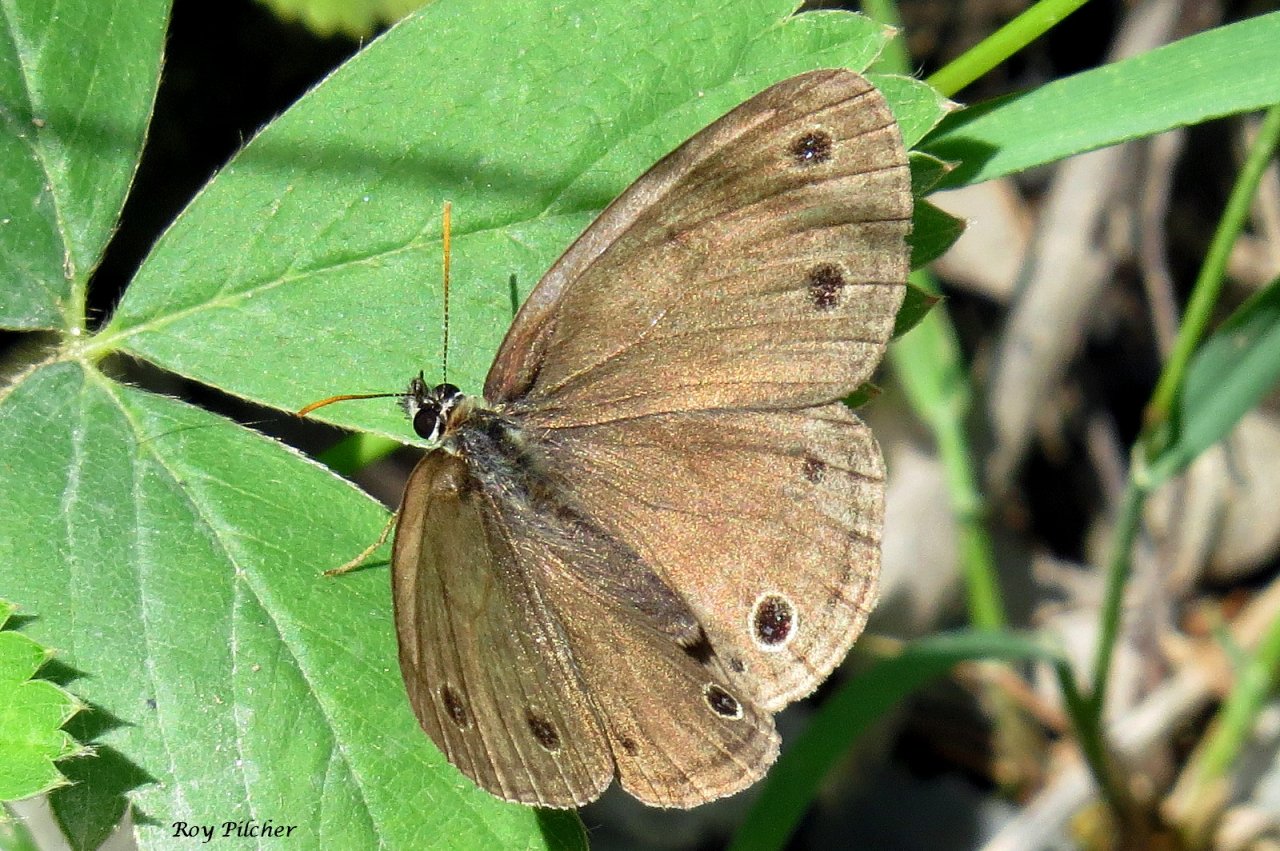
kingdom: Animalia
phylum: Arthropoda
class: Insecta
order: Lepidoptera
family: Nymphalidae
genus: Euptychia
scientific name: Euptychia cymela
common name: Little Wood Satyr
